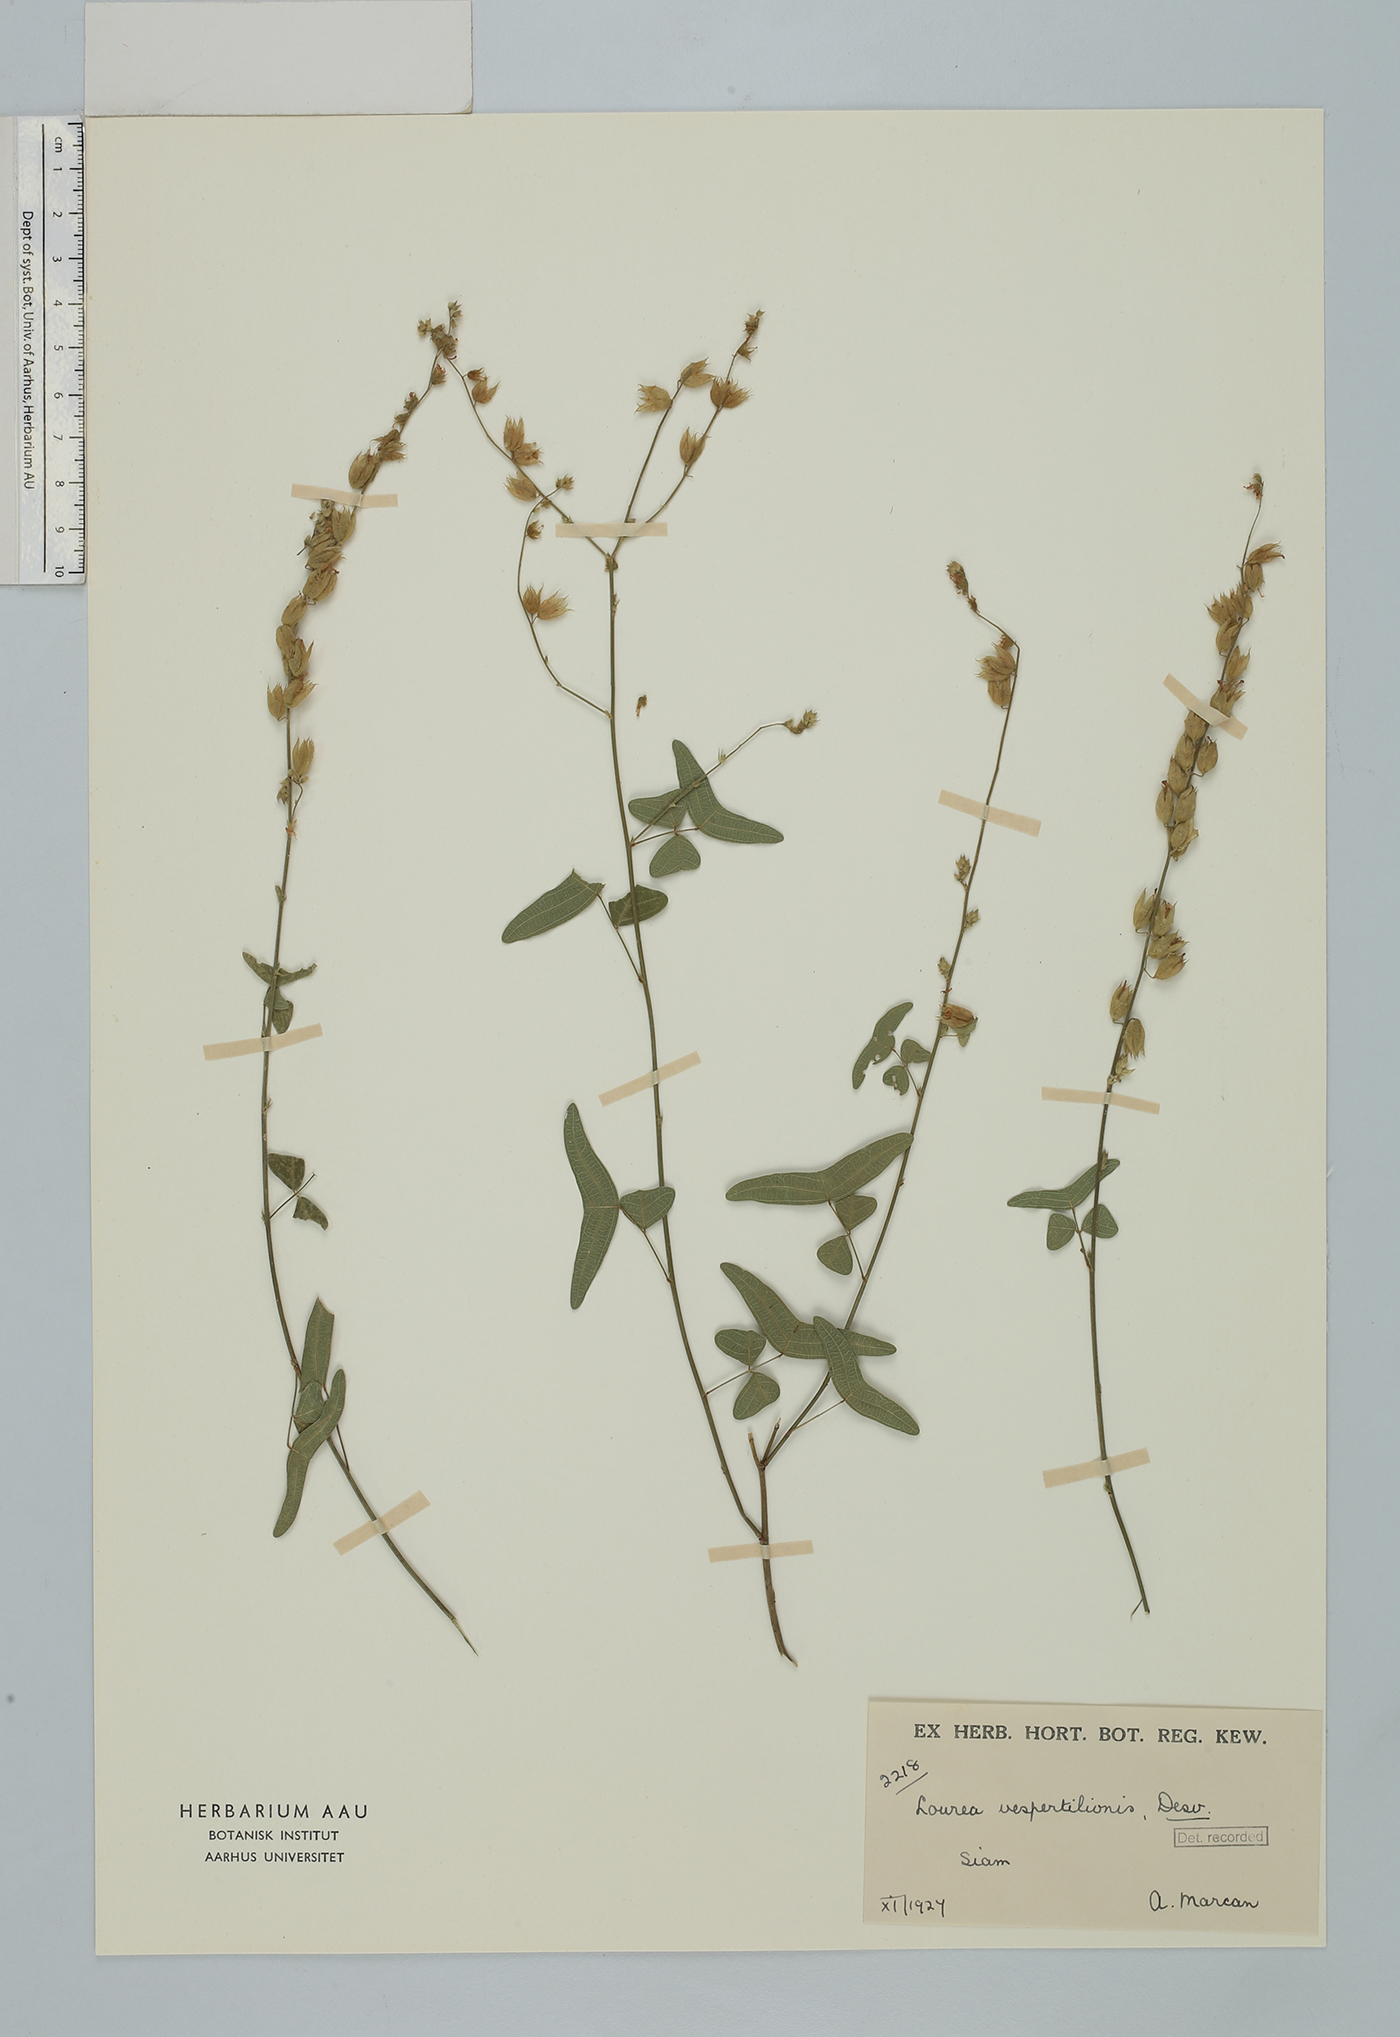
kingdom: Plantae
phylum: Tracheophyta
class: Magnoliopsida
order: Fabales
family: Fabaceae
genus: Christia
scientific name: Christia vespertilionis
